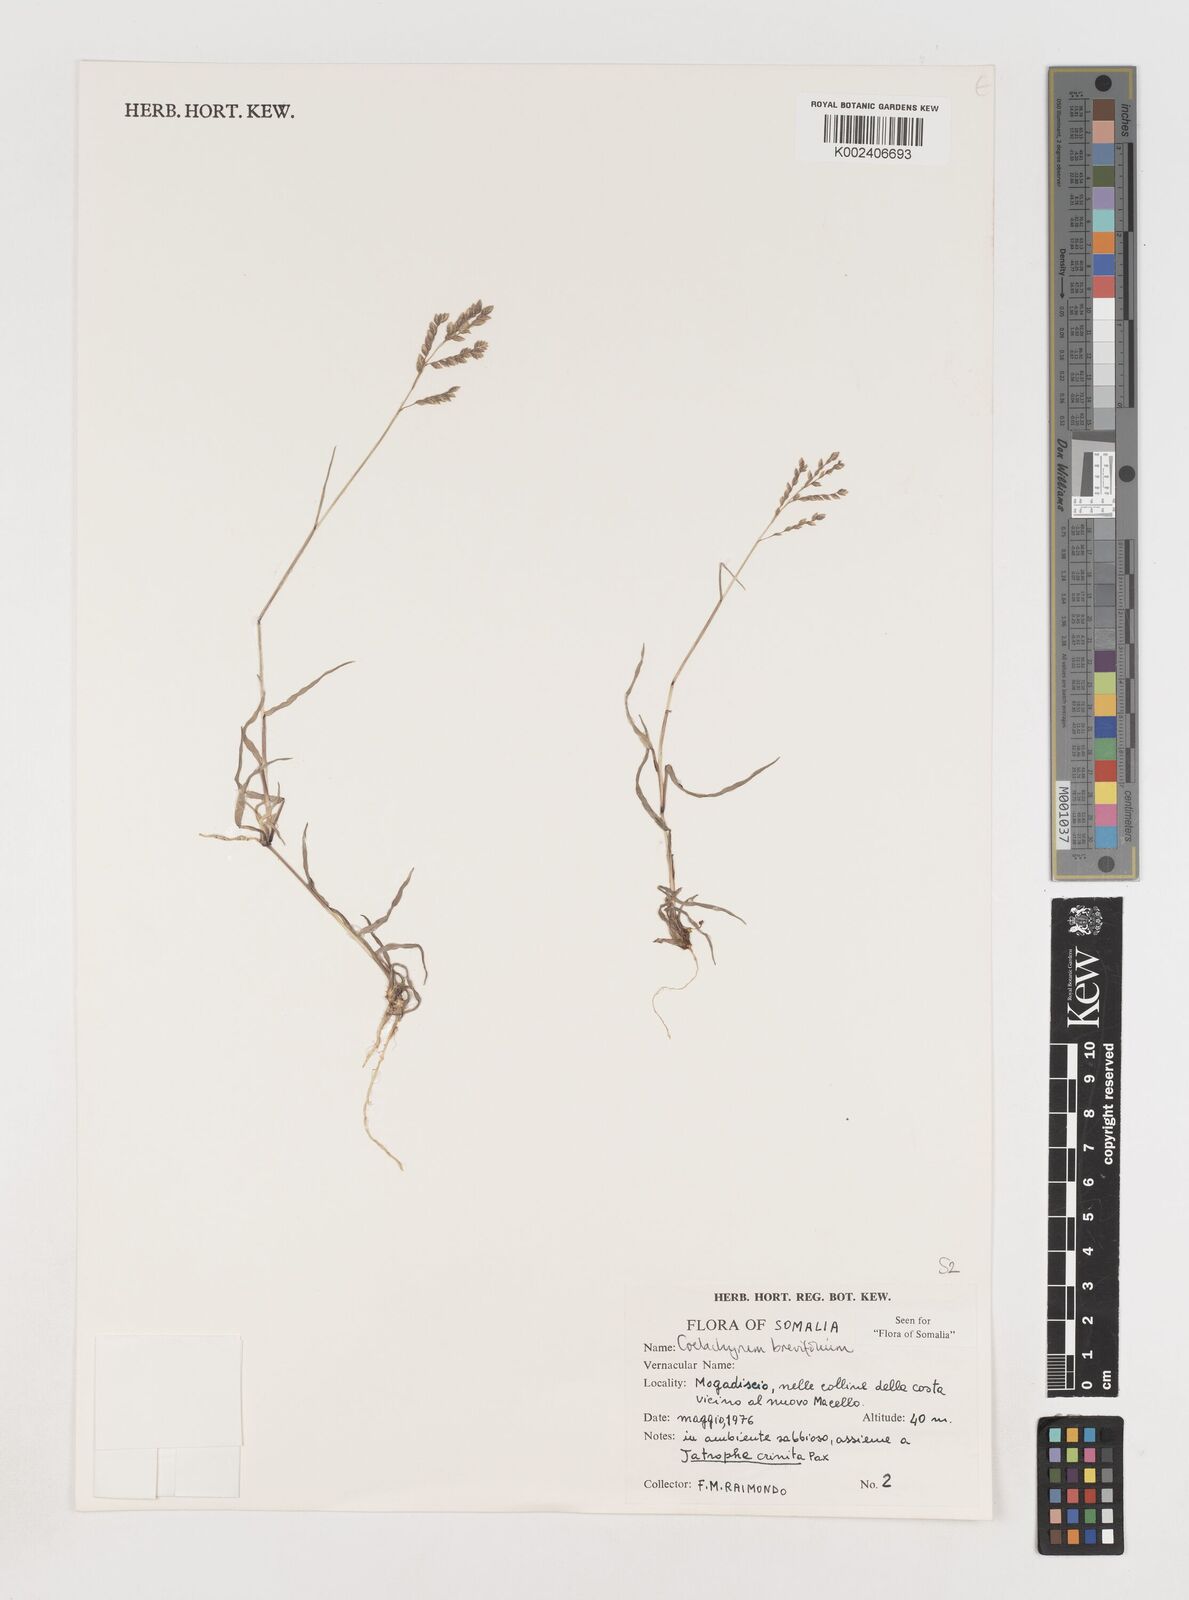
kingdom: Plantae
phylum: Tracheophyta
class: Liliopsida
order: Poales
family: Poaceae
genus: Coelachyrum
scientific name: Coelachyrum brevifolium
